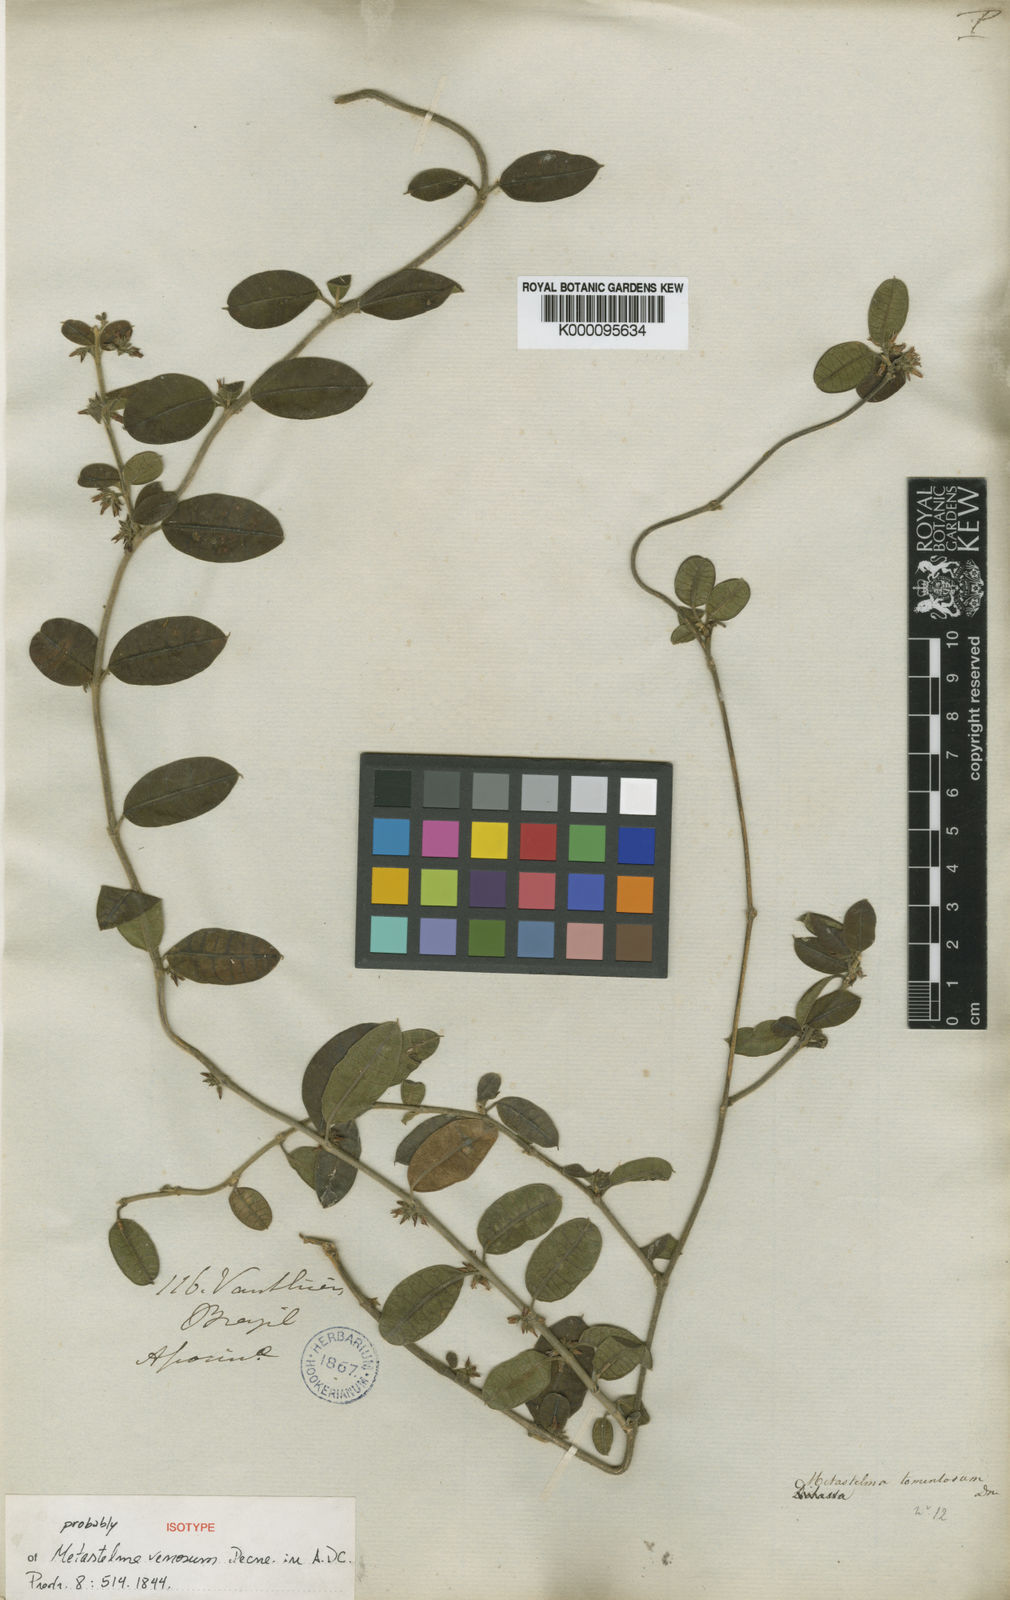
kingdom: Plantae
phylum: Tracheophyta
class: Magnoliopsida
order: Gentianales
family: Apocynaceae
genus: Ditassa
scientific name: Ditassa tomentosa
